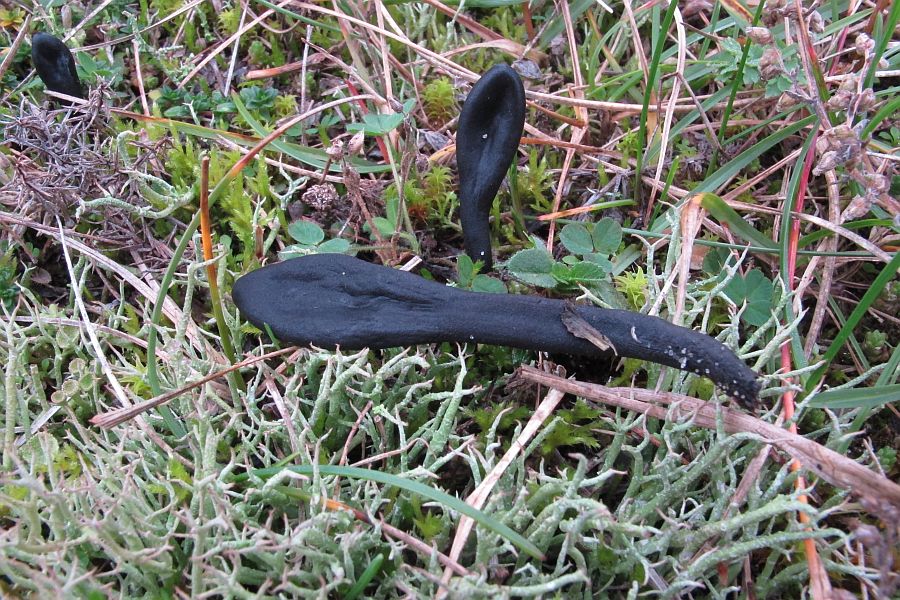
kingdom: Fungi
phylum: Ascomycota
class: Geoglossomycetes
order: Geoglossales
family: Geoglossaceae
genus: Geoglossum
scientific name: Geoglossum cookeianum
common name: bred jordtunge
